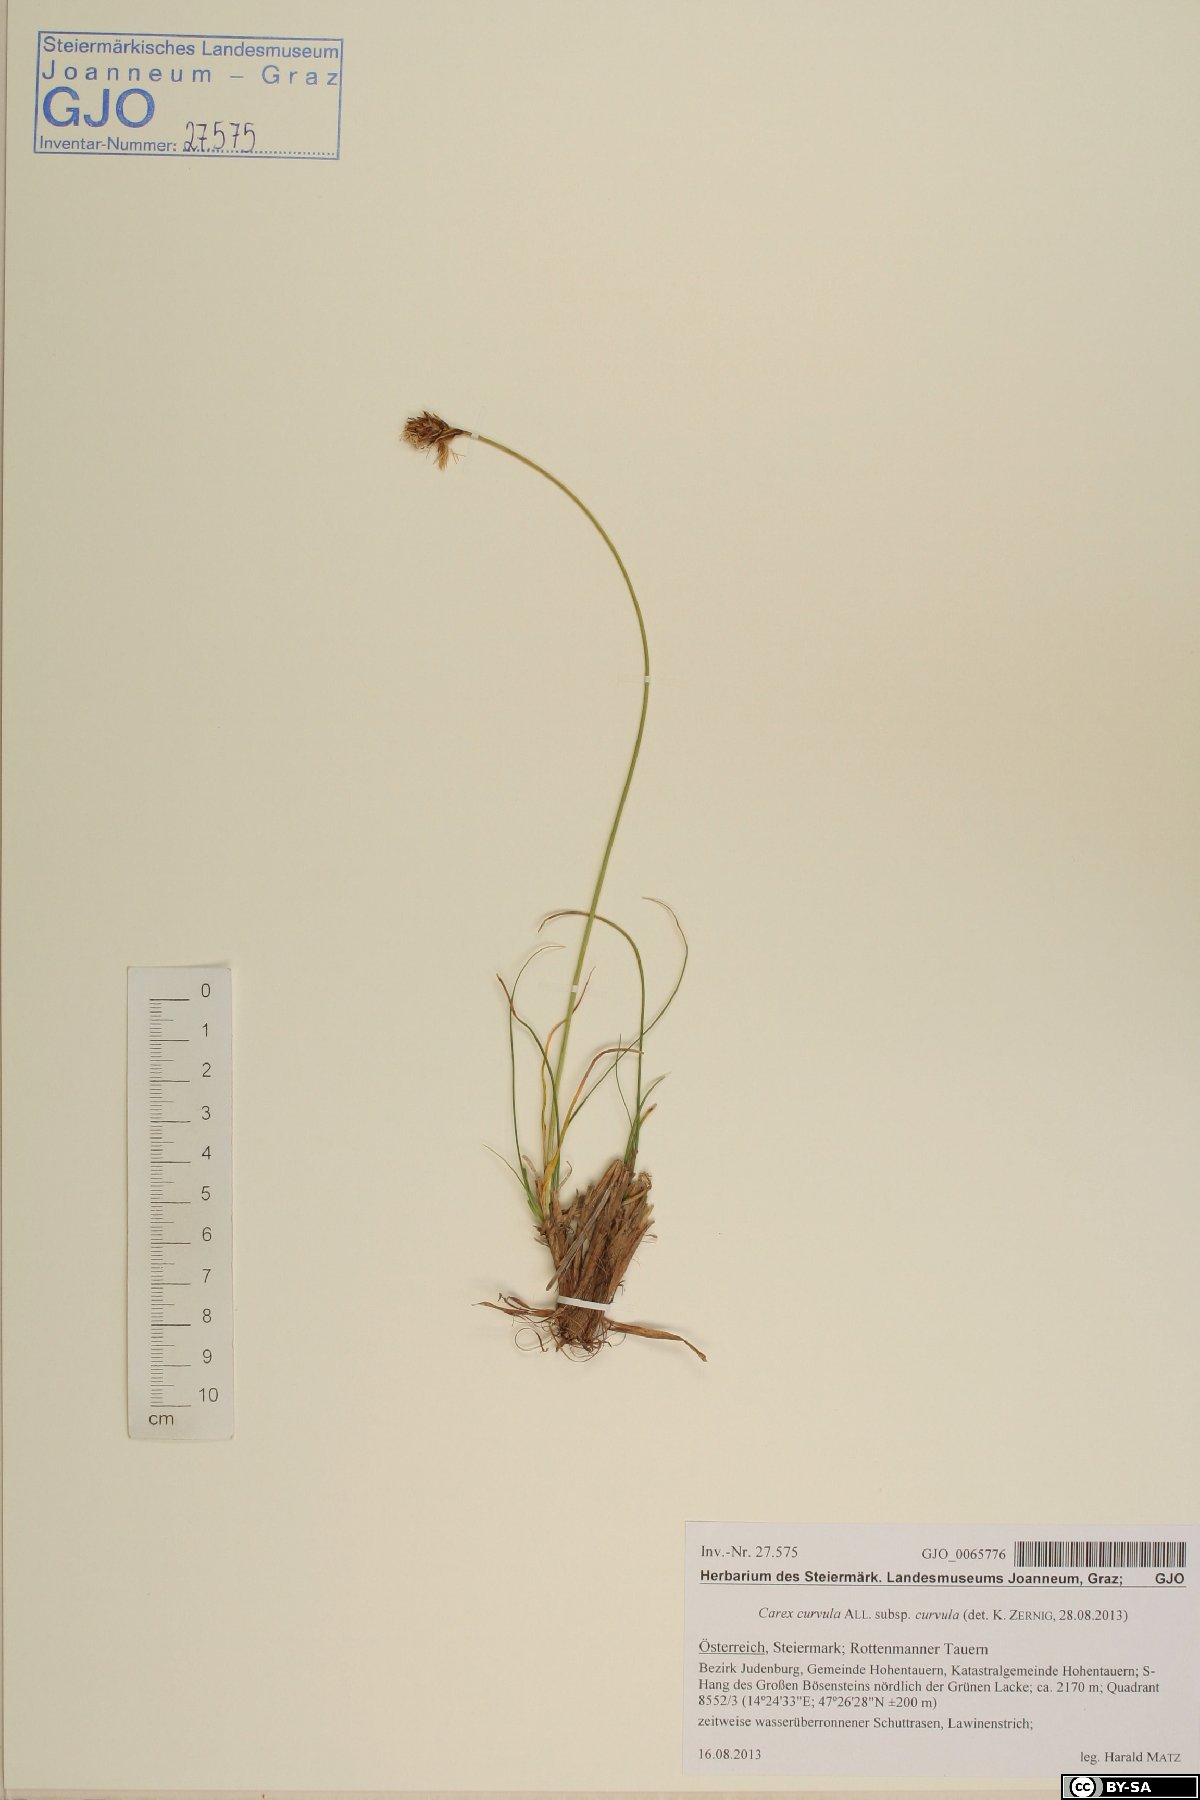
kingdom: Plantae
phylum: Tracheophyta
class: Liliopsida
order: Poales
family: Cyperaceae
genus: Carex
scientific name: Carex curvula
